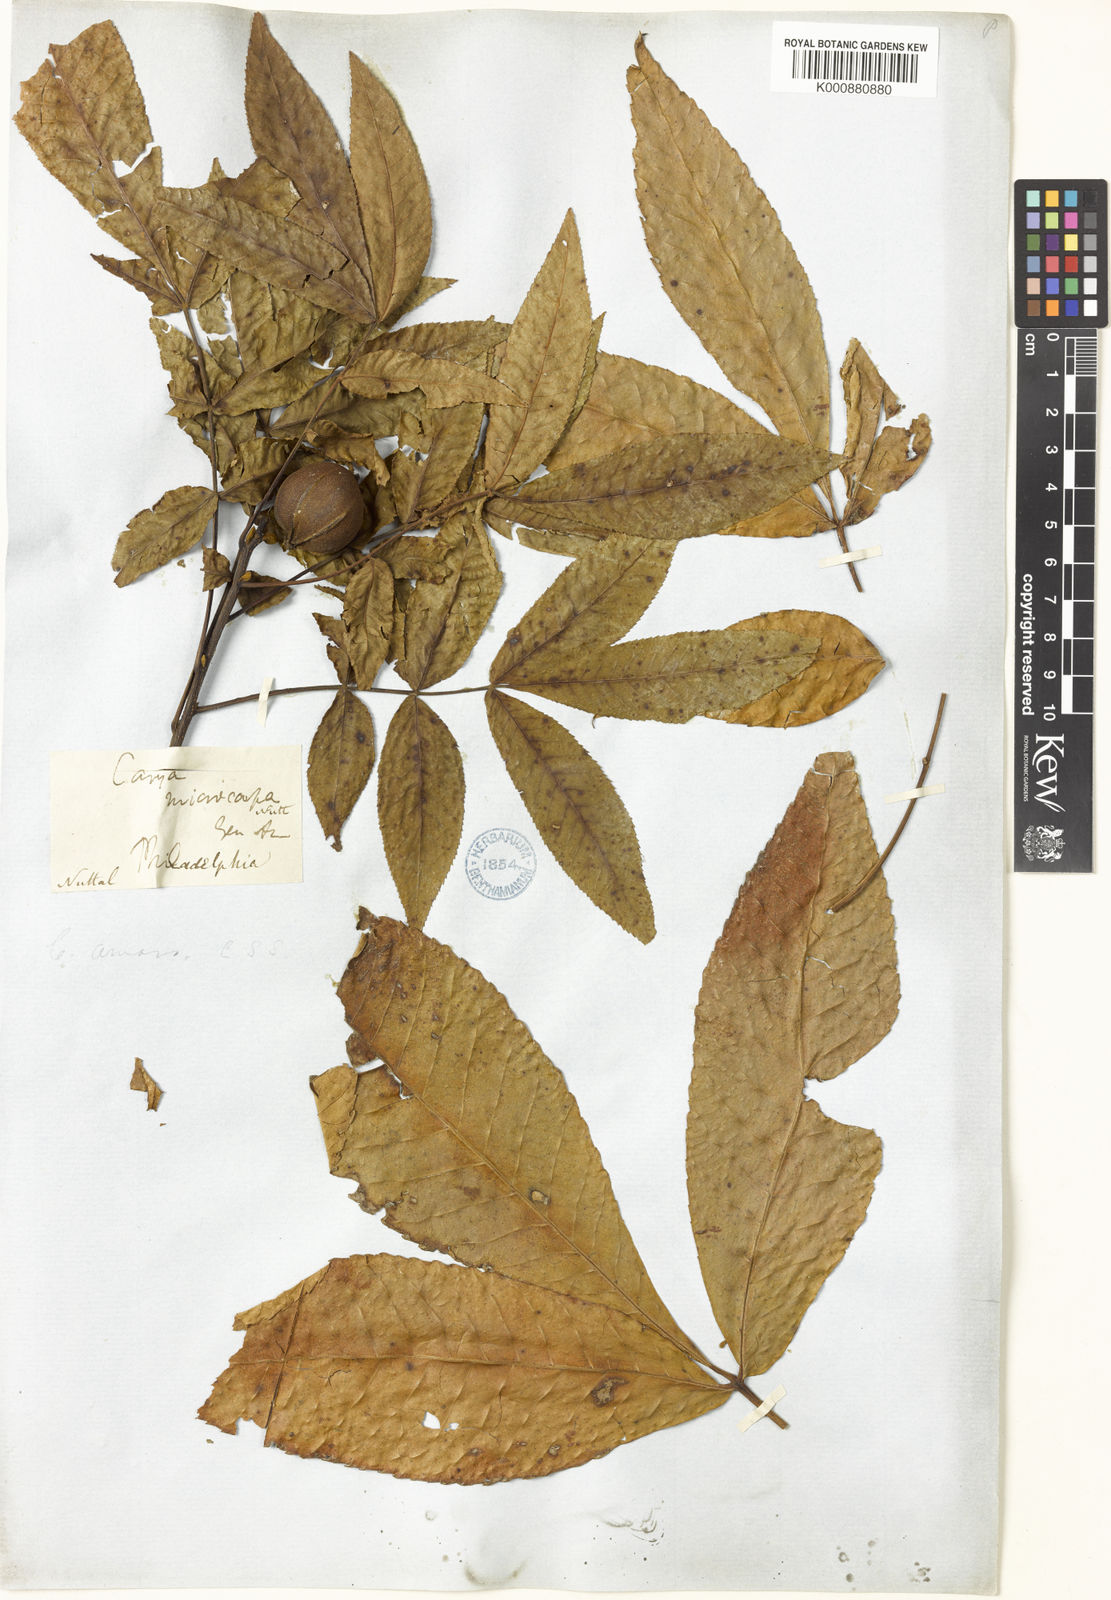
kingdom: Plantae
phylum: Tracheophyta
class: Magnoliopsida
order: Fagales
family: Juglandaceae
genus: Carya
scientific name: Carya glabra
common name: Pignut hickory
